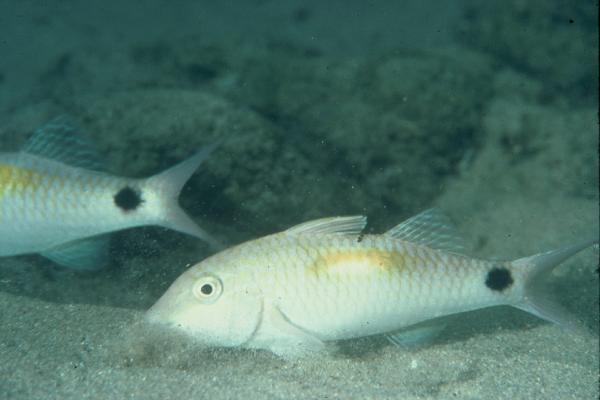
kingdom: Animalia
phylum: Chordata
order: Perciformes
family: Mullidae
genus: Parupeneus
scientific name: Parupeneus
